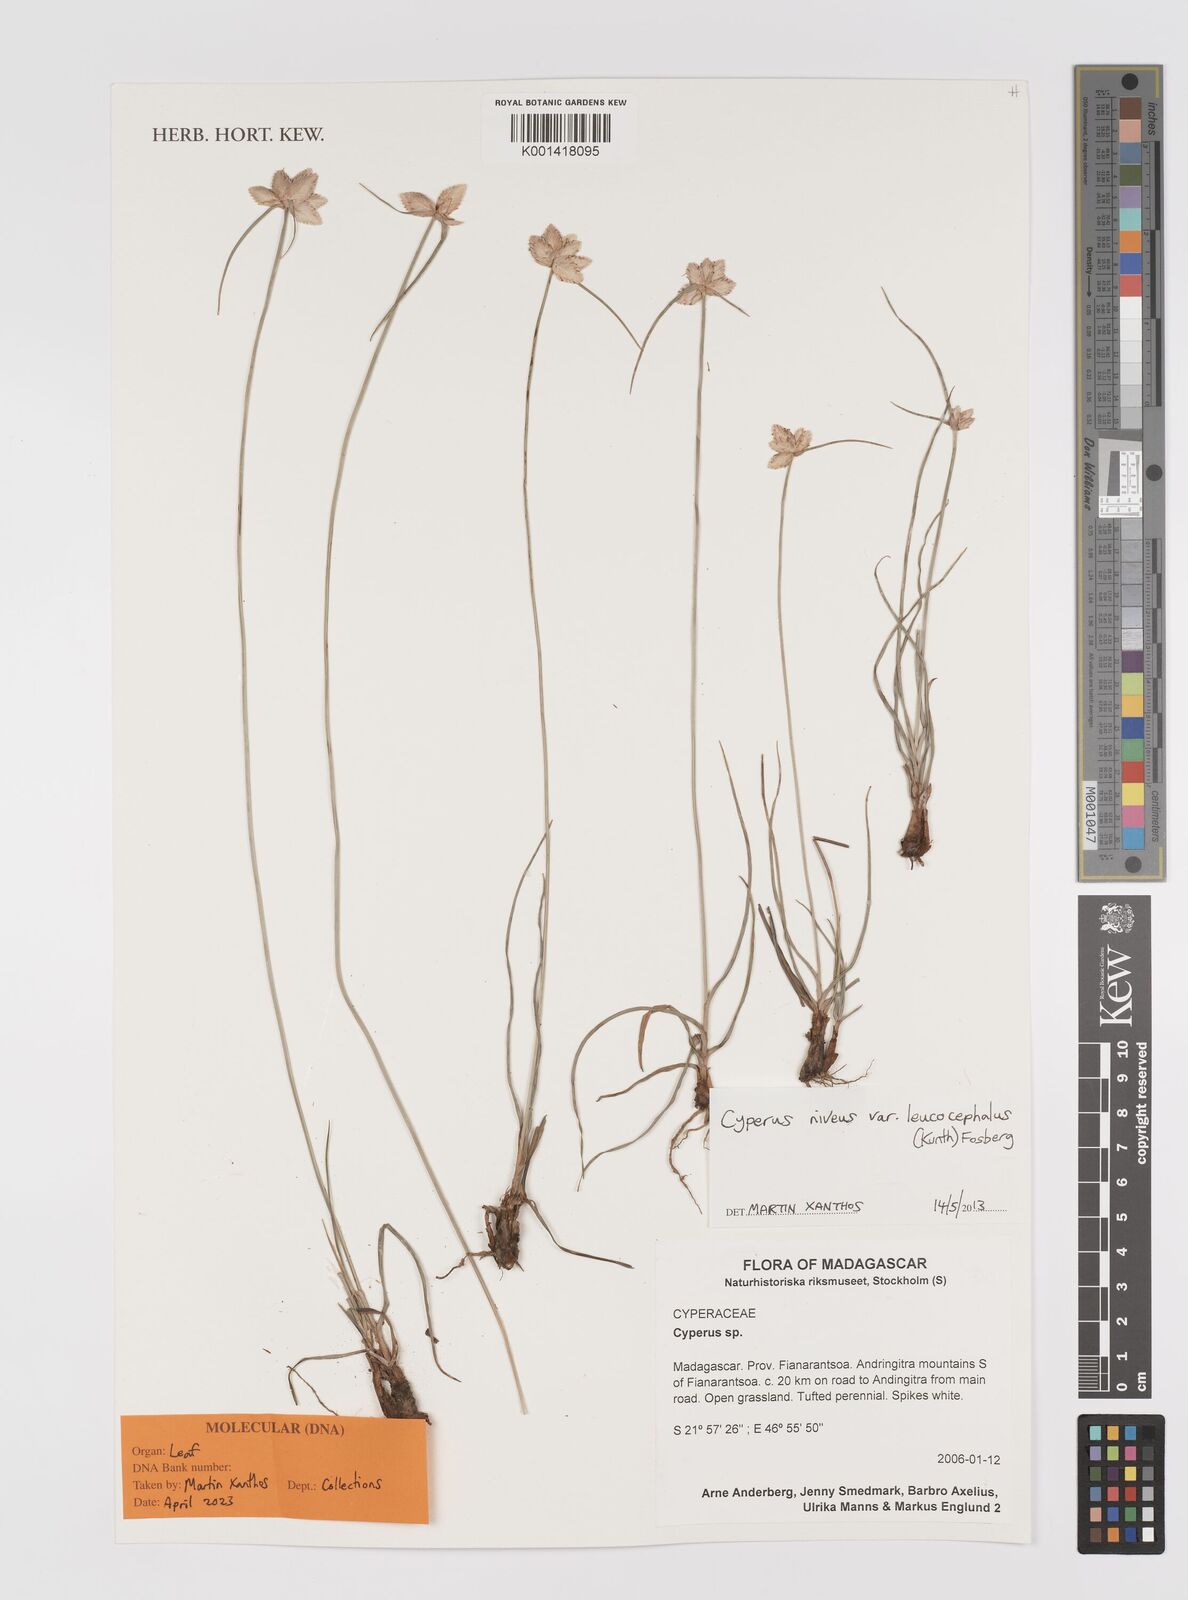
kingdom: Plantae
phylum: Tracheophyta
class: Liliopsida
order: Poales
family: Cyperaceae
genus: Cyperus
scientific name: Cyperus niveus
